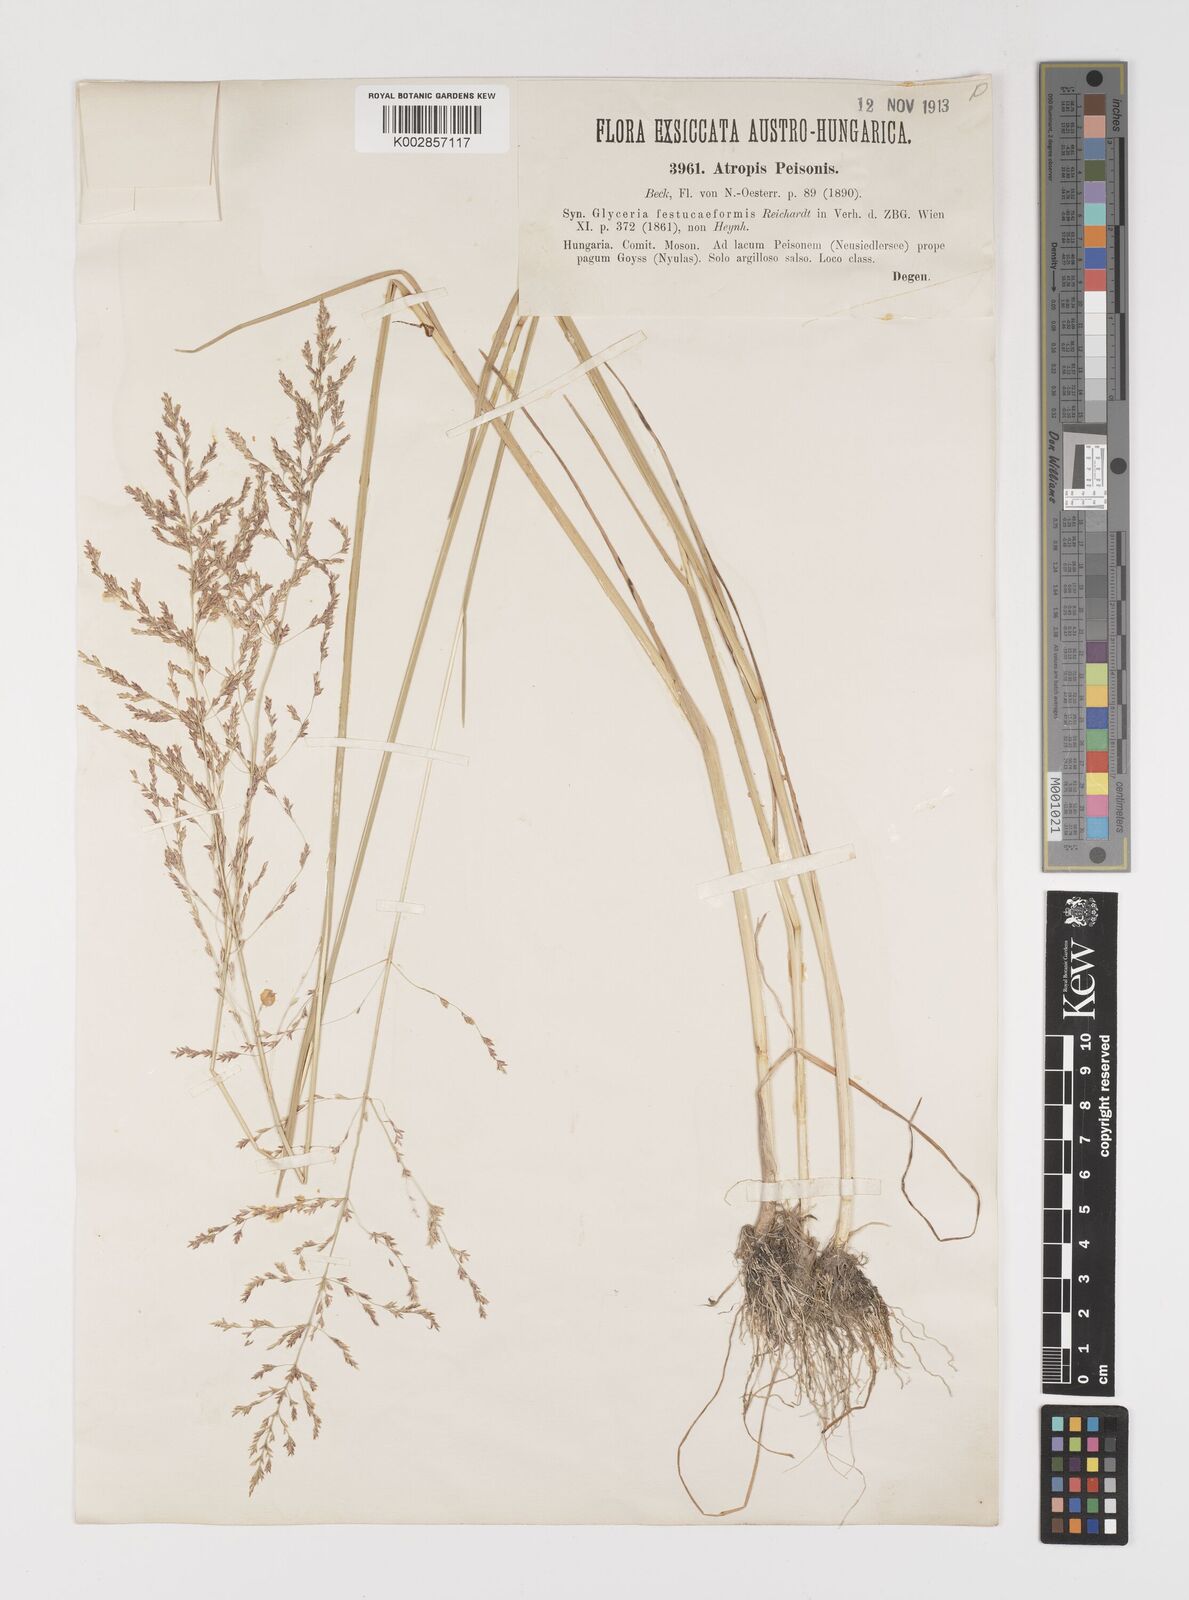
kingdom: Plantae
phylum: Tracheophyta
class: Liliopsida
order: Poales
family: Poaceae
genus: Puccinellia
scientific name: Puccinellia festuciformis
